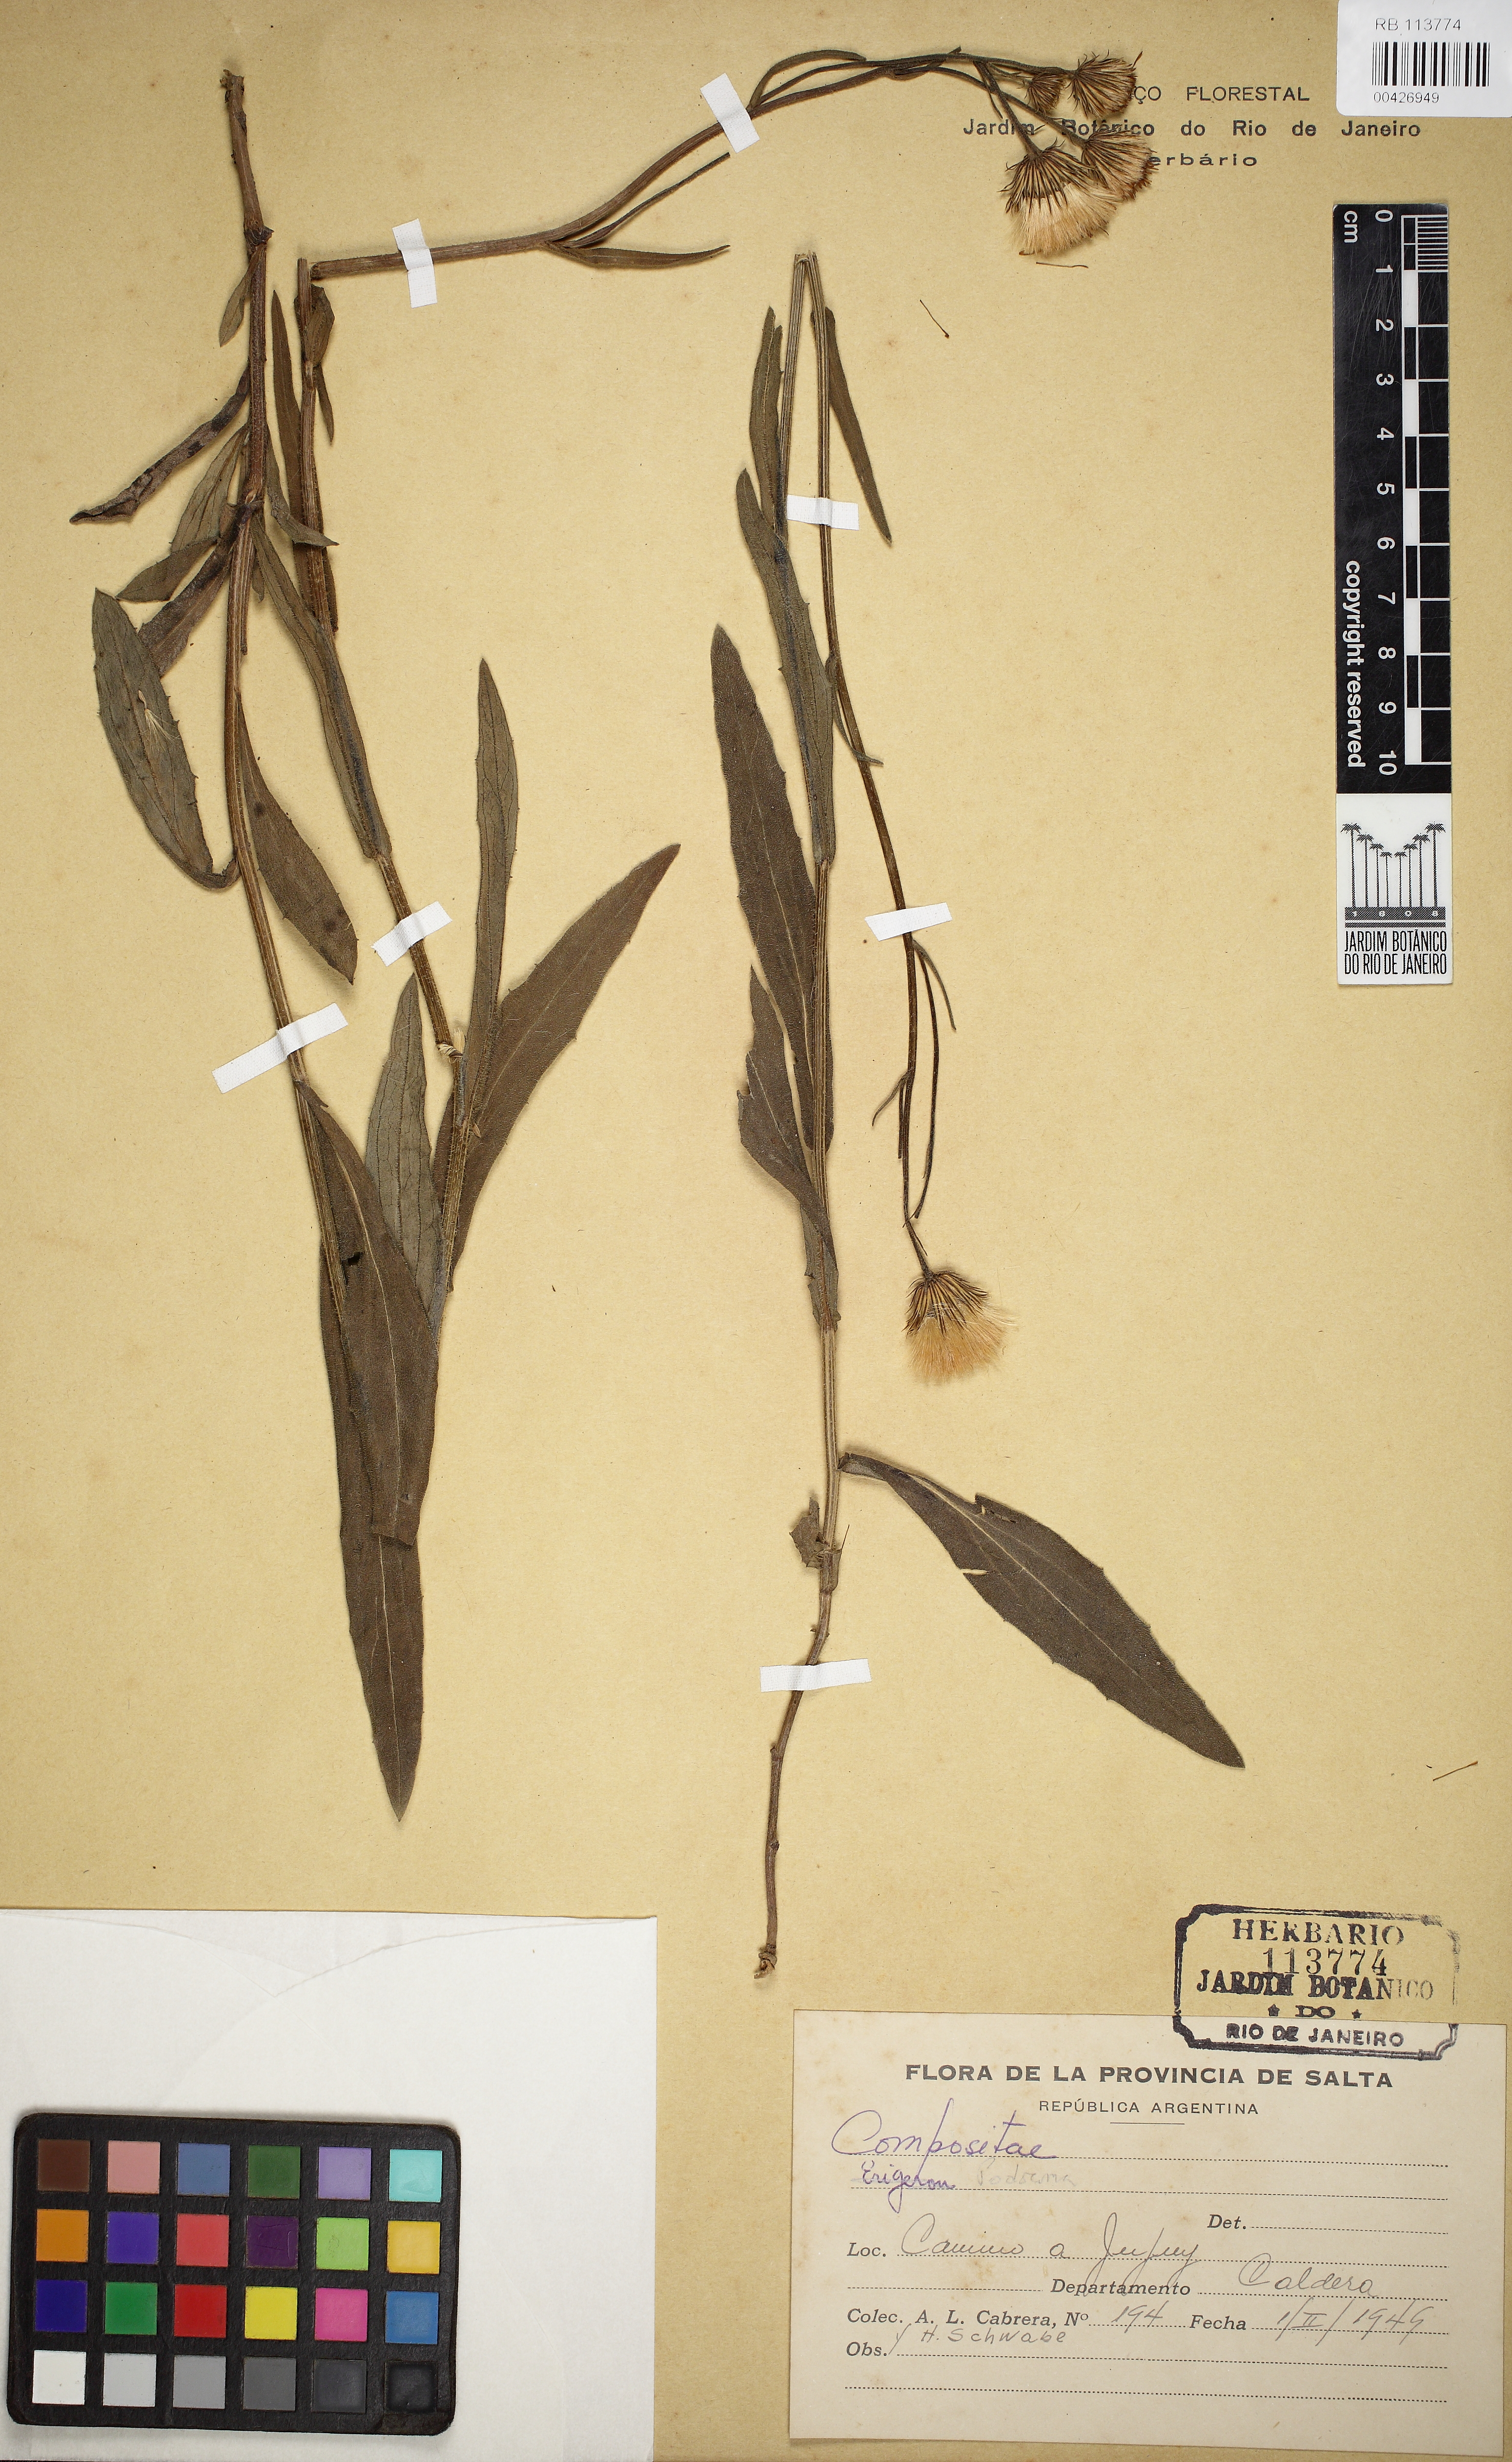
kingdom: Plantae
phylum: Tracheophyta
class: Magnoliopsida
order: Asterales
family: Asteraceae
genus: Podocoma
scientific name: Podocoma hieracifolia
